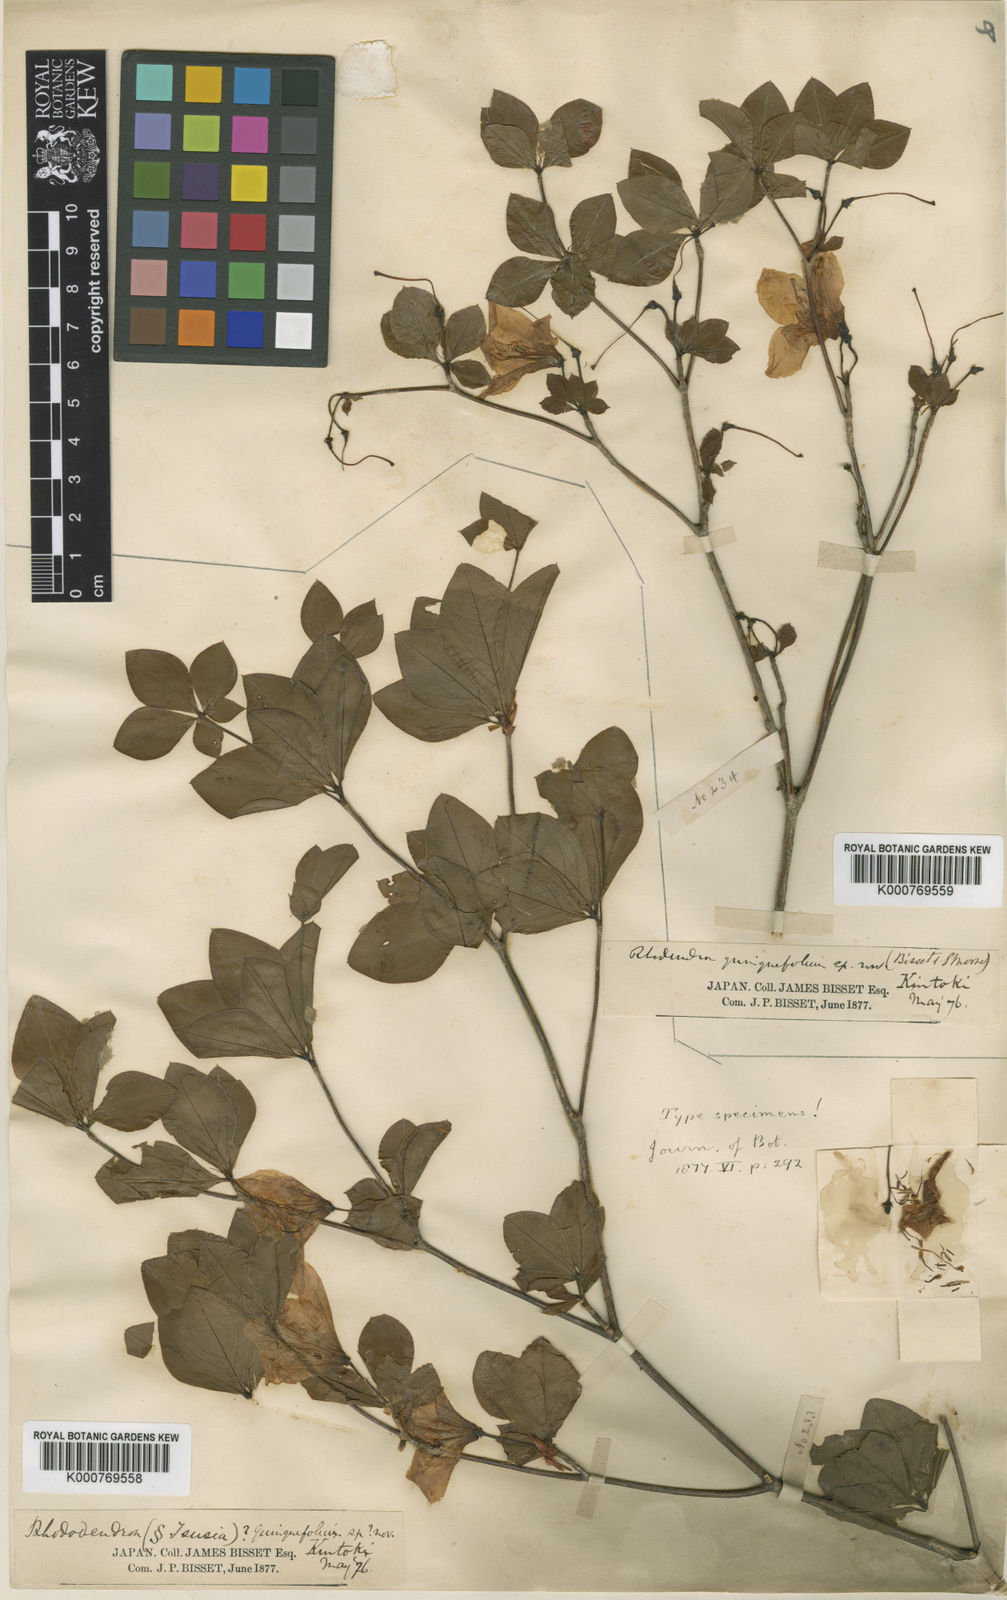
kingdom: Plantae
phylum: Tracheophyta
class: Magnoliopsida
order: Ericales
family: Ericaceae
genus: Rhododendron
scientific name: Rhododendron quinquefolium
